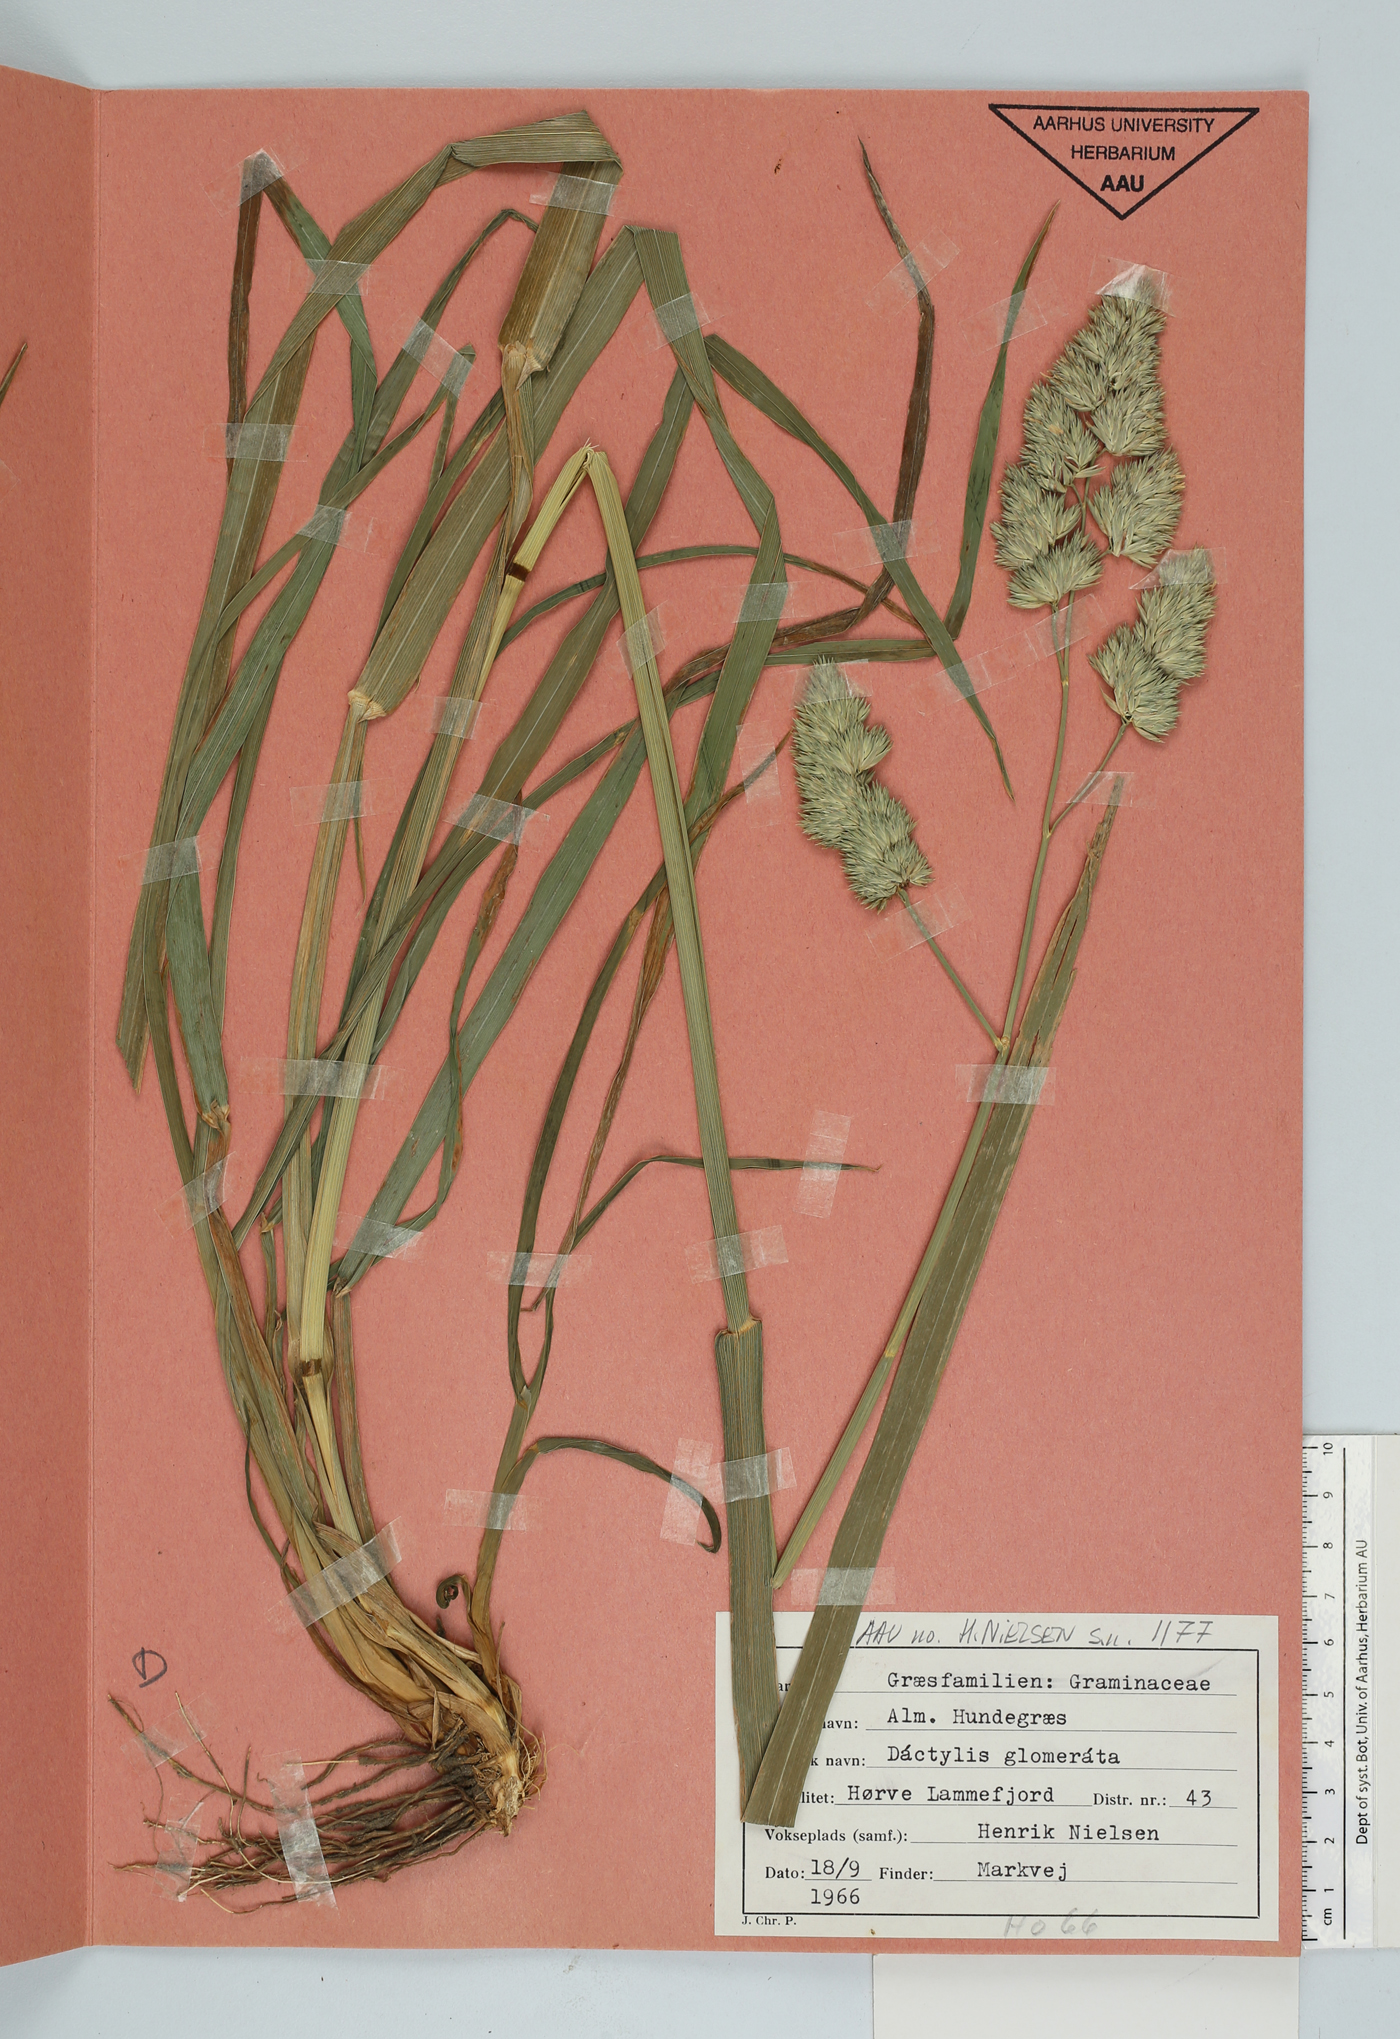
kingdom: Plantae
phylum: Tracheophyta
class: Liliopsida
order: Poales
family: Poaceae
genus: Dactylis
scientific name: Dactylis glomerata
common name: Orchardgrass
